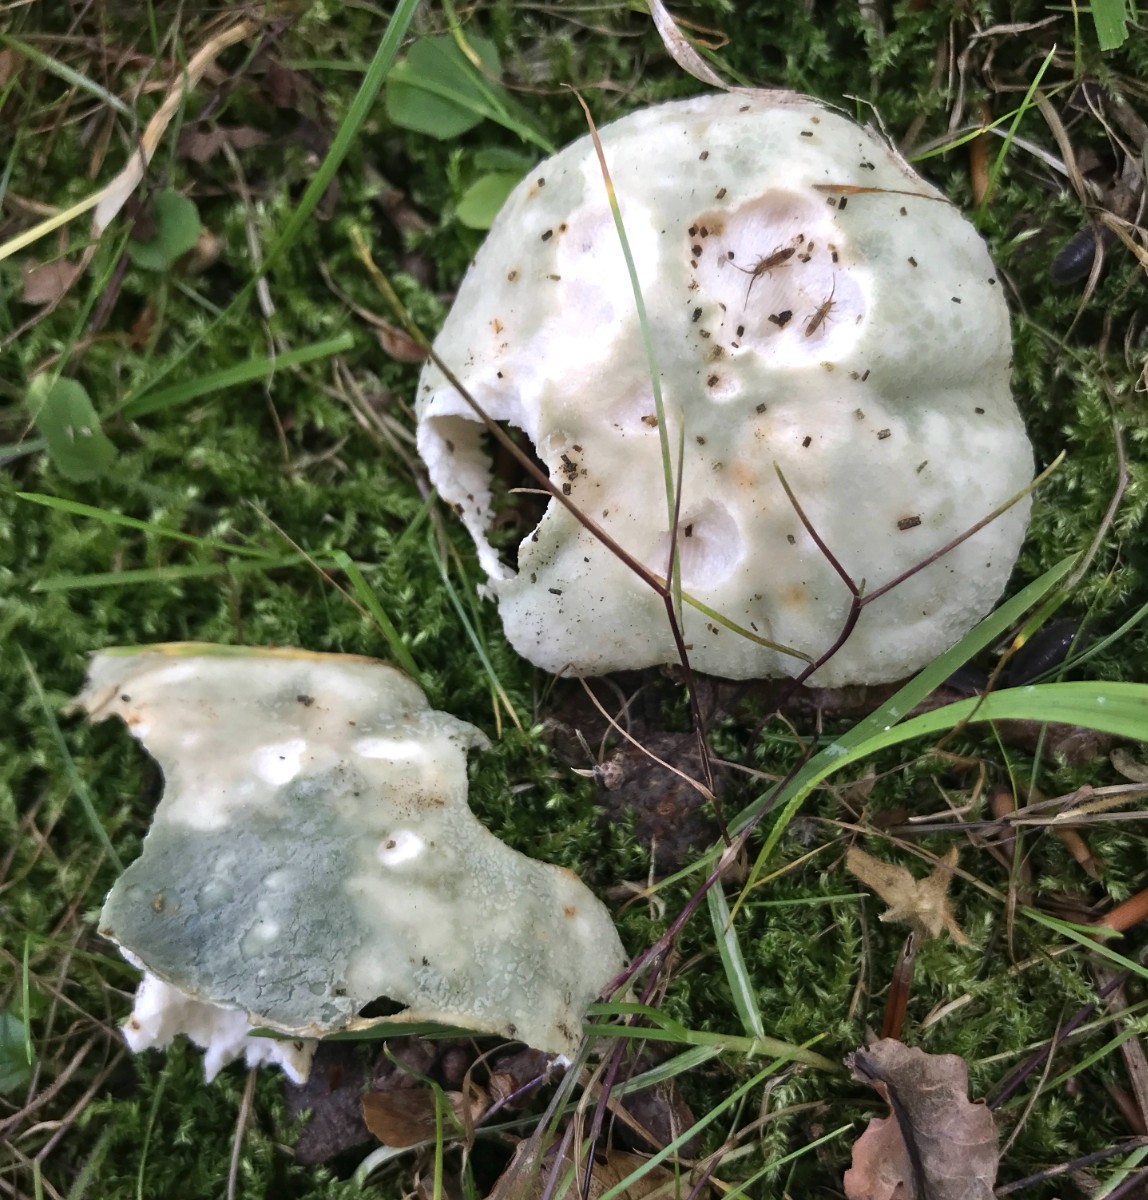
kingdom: Fungi
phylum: Basidiomycota
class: Agaricomycetes
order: Russulales
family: Russulaceae
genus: Russula
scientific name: Russula virescens
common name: spanskgrøn skørhat
